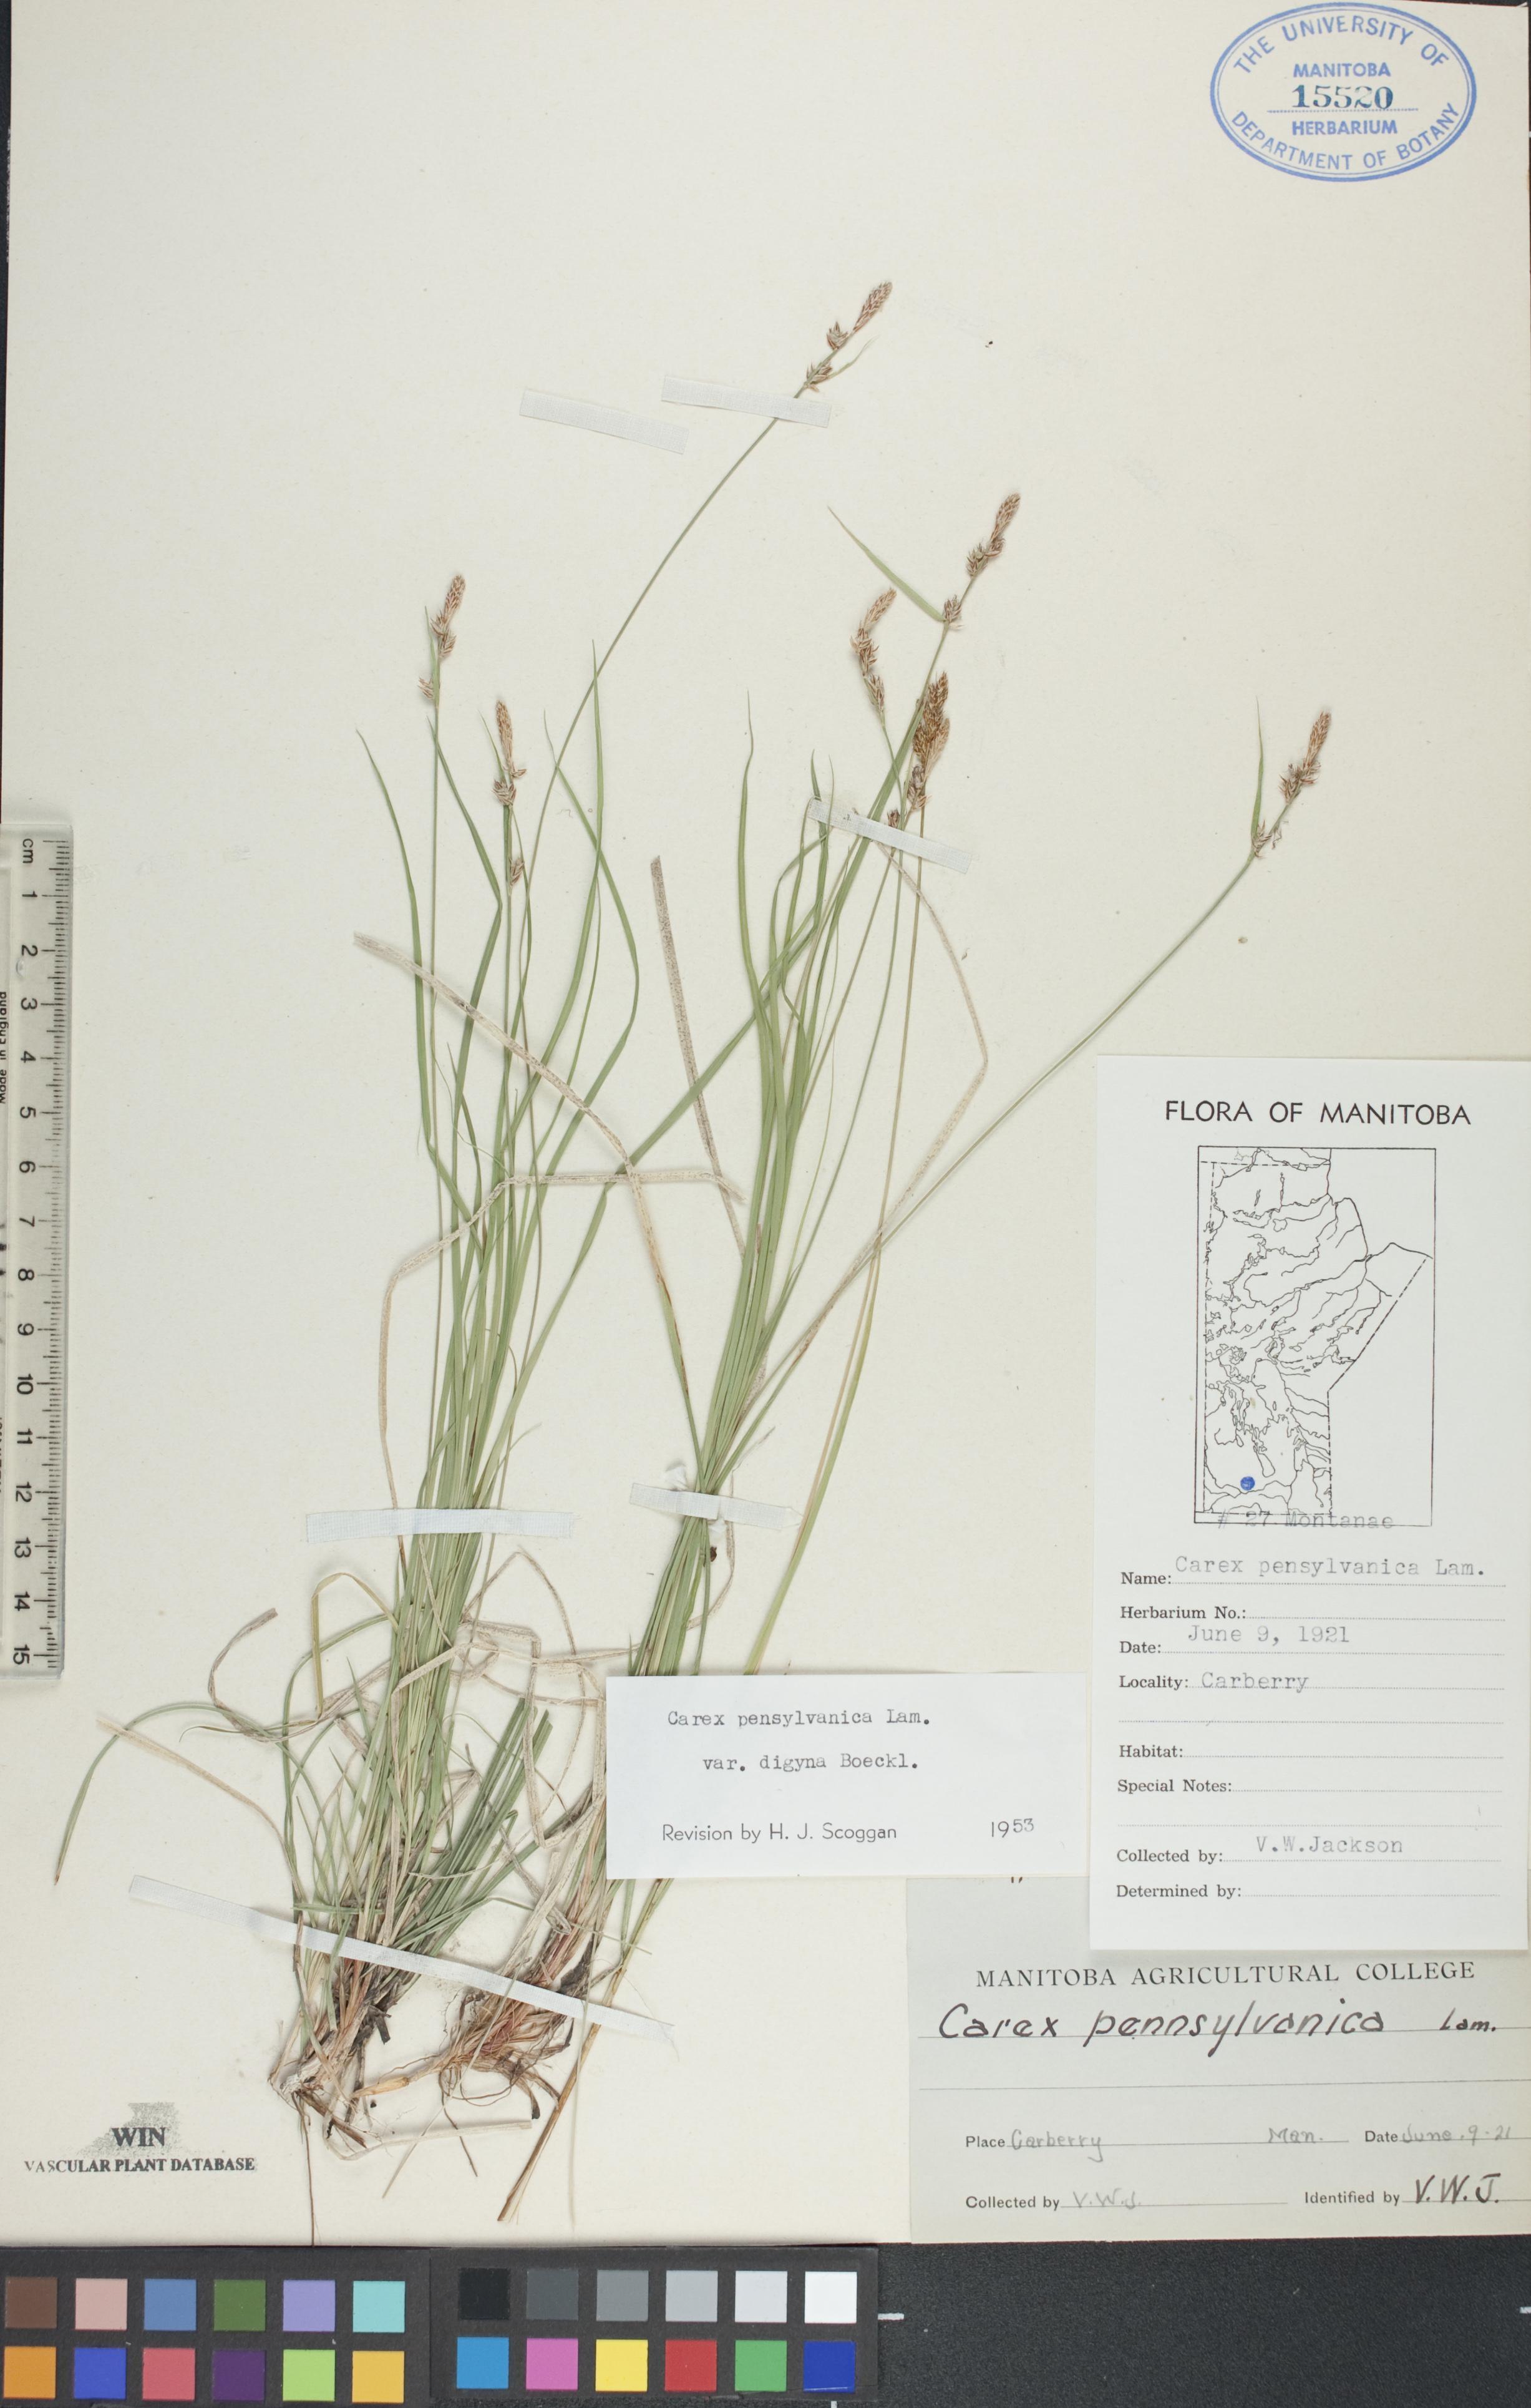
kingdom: Plantae
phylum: Tracheophyta
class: Liliopsida
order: Poales
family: Cyperaceae
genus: Carex
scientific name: Carex pensylvanica
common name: Common oak sedge
